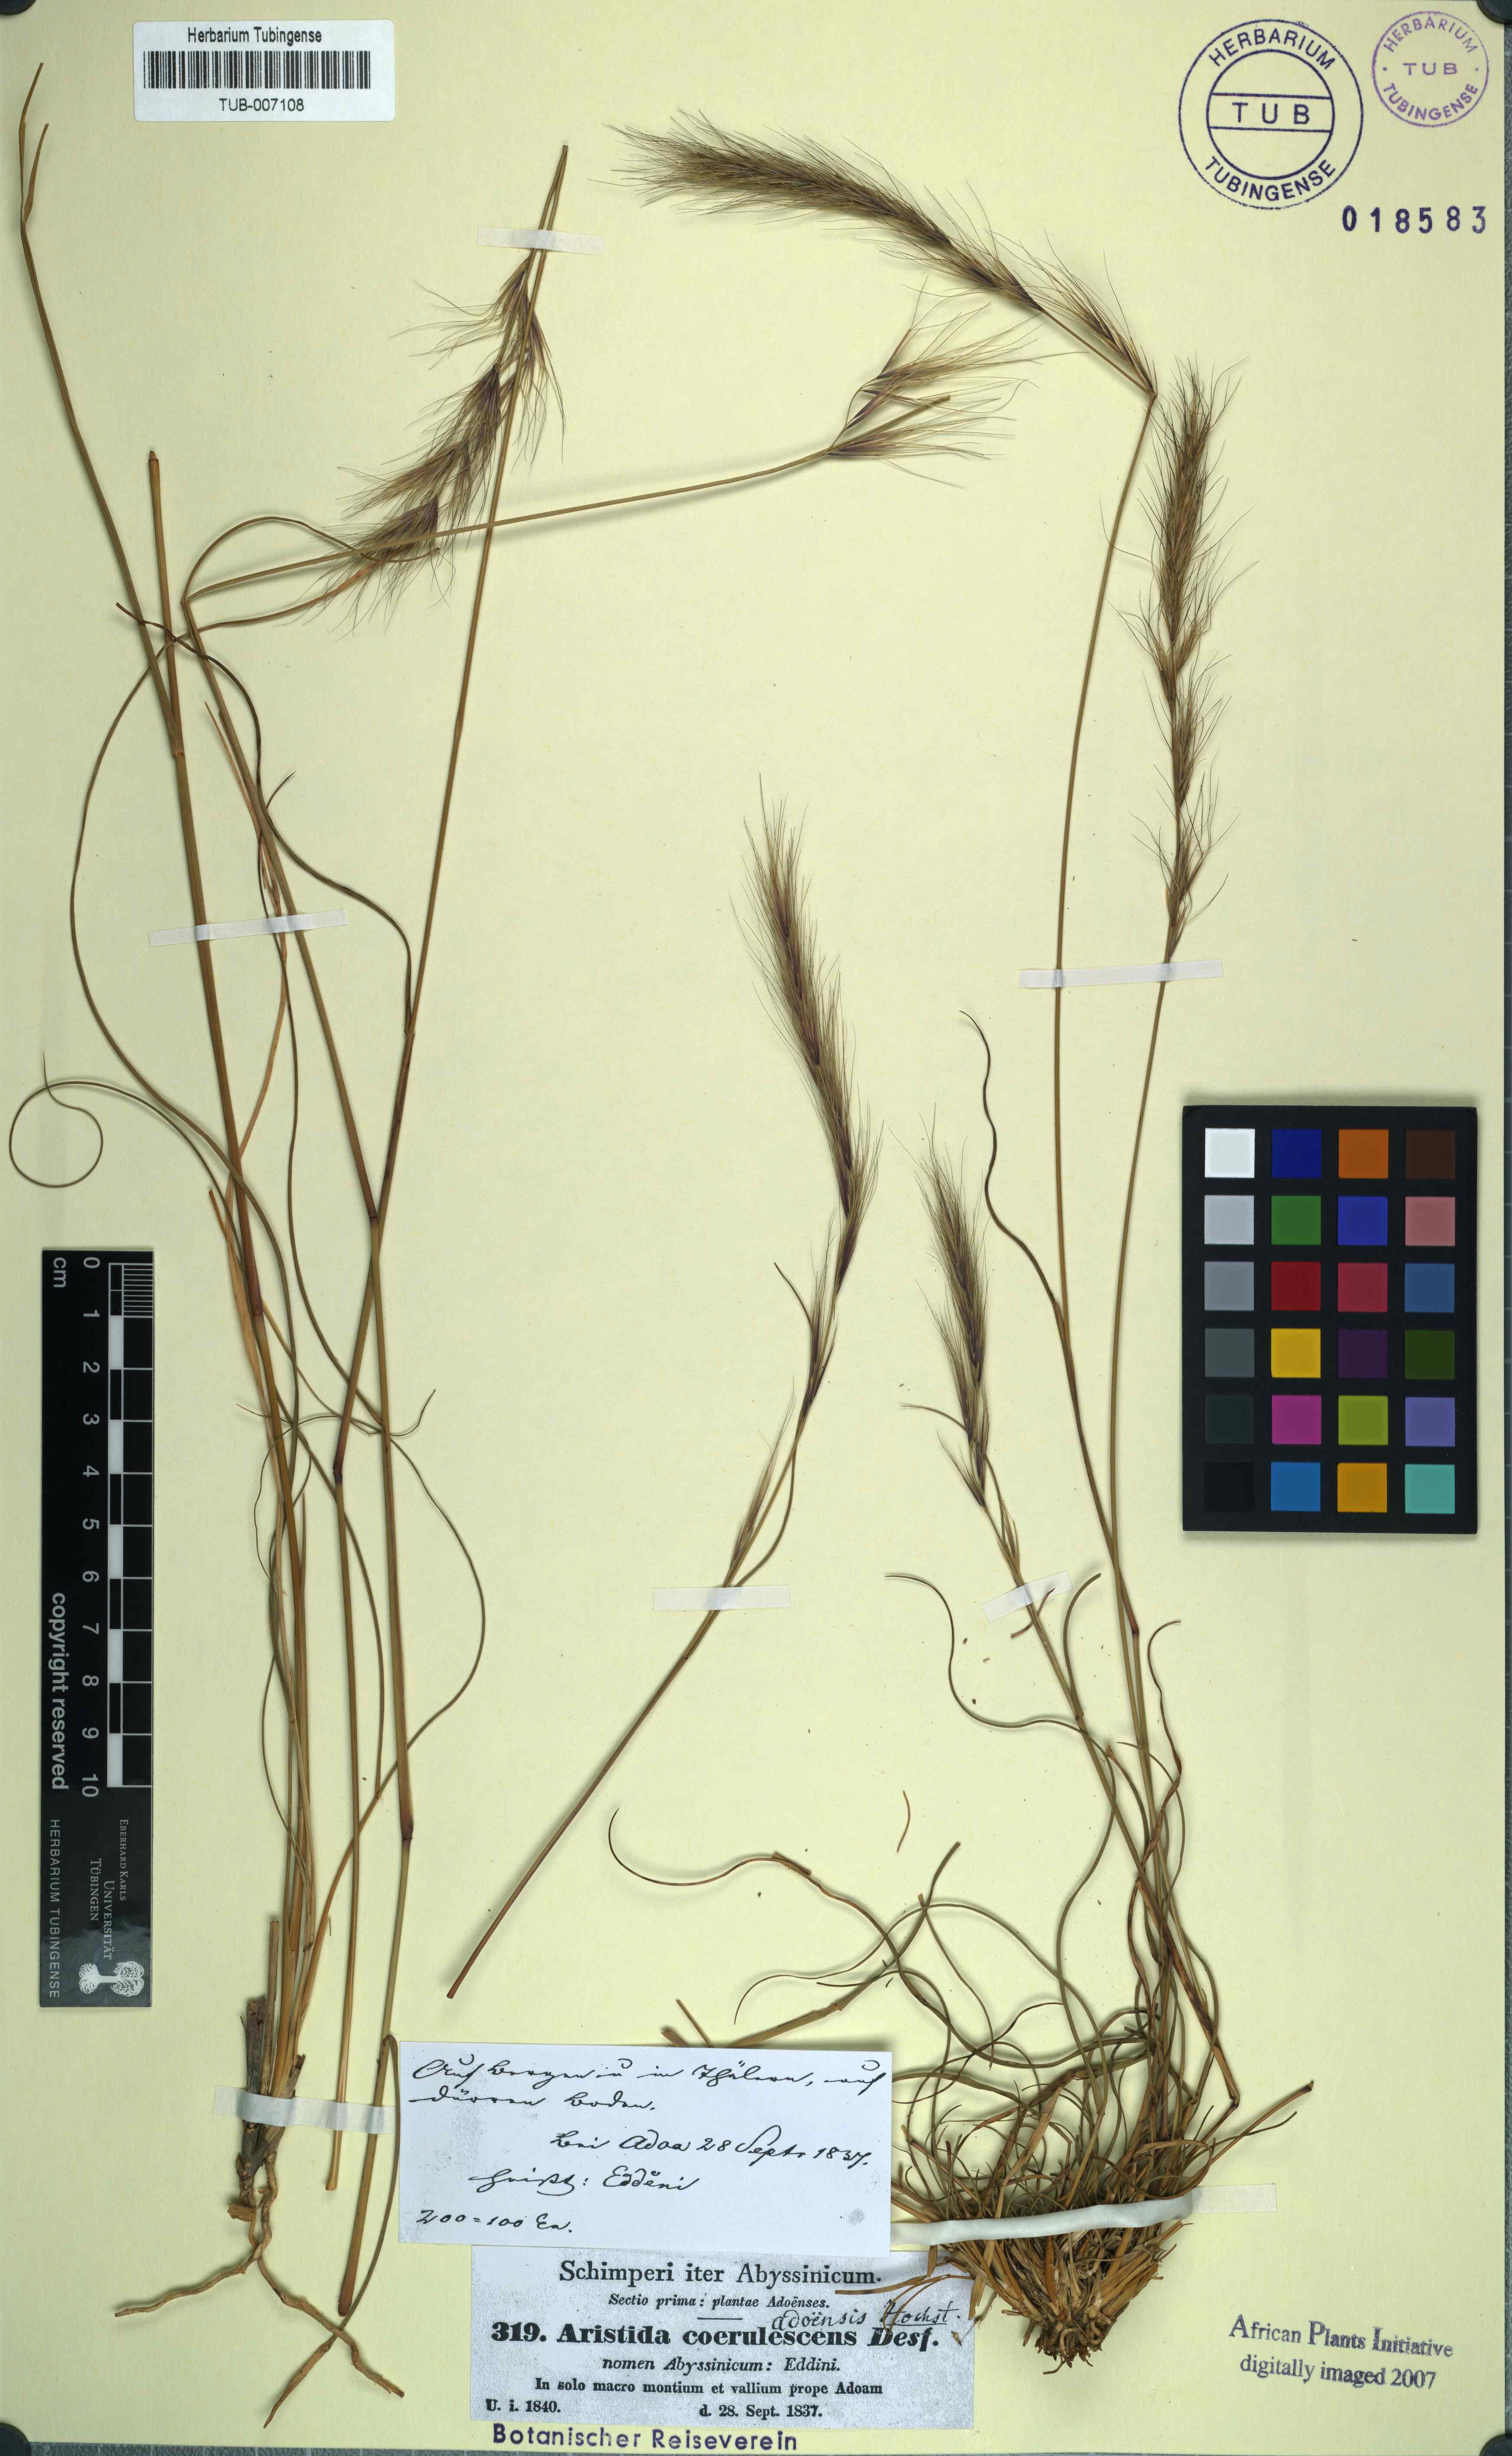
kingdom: Plantae
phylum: Tracheophyta
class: Liliopsida
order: Poales
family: Poaceae
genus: Aristida
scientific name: Aristida adoensis
